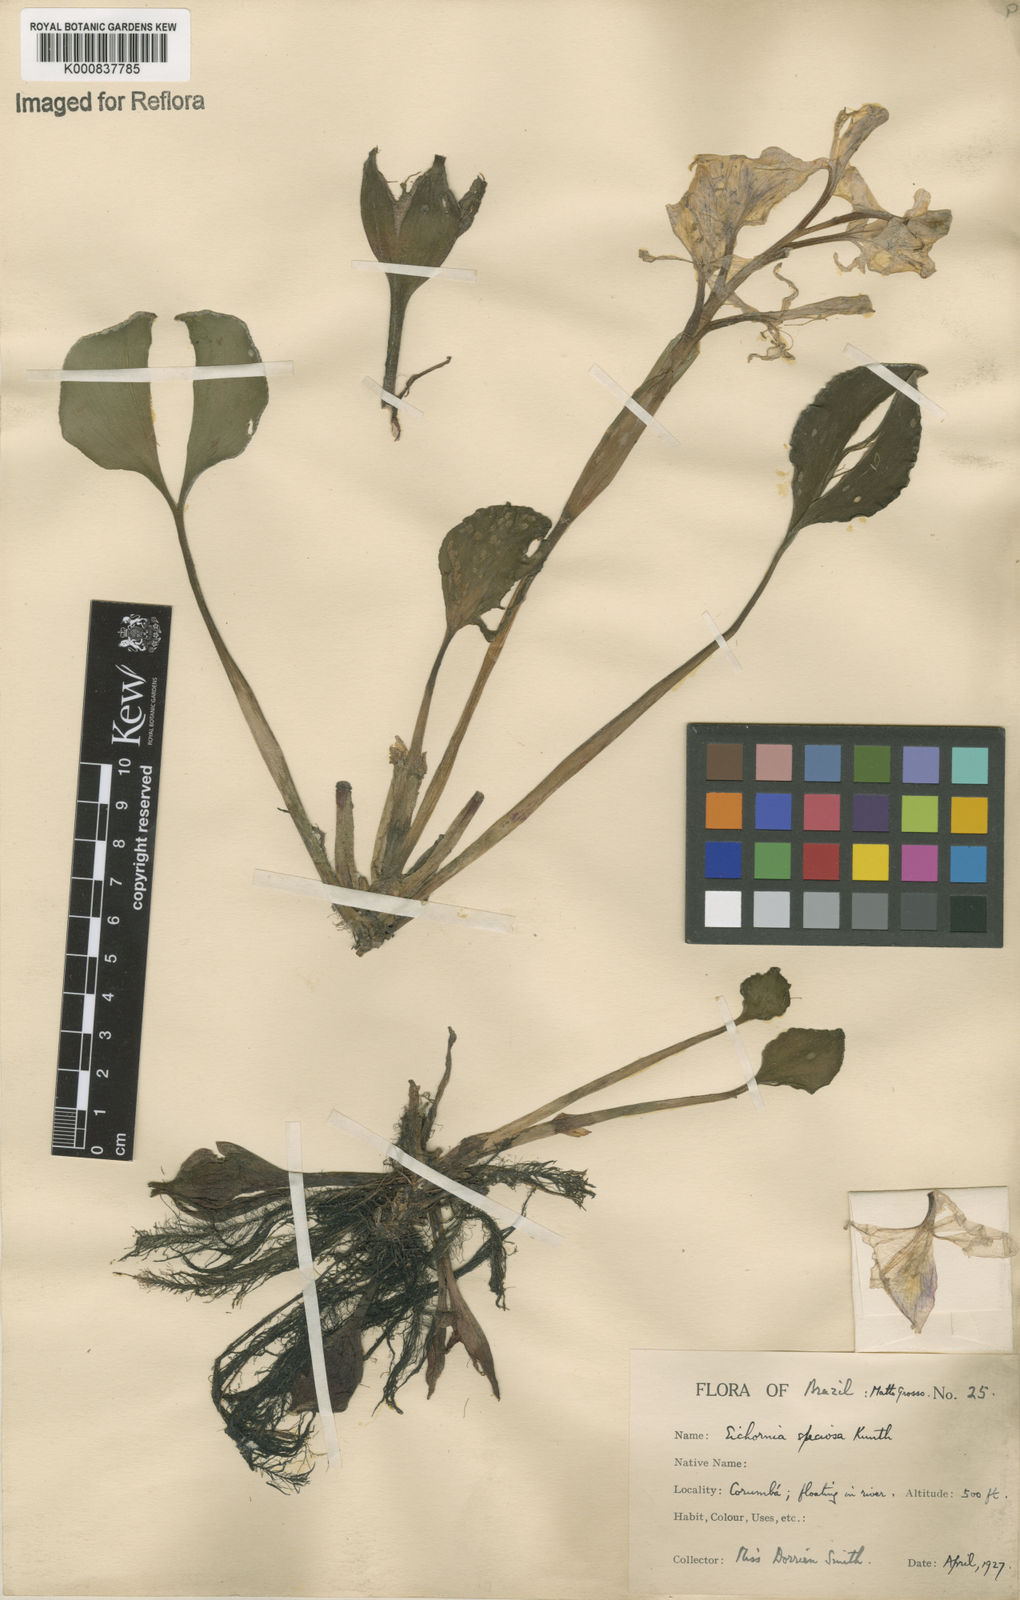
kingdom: Plantae
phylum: Tracheophyta
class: Liliopsida
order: Commelinales
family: Pontederiaceae
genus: Pontederia
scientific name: Pontederia crassipes
